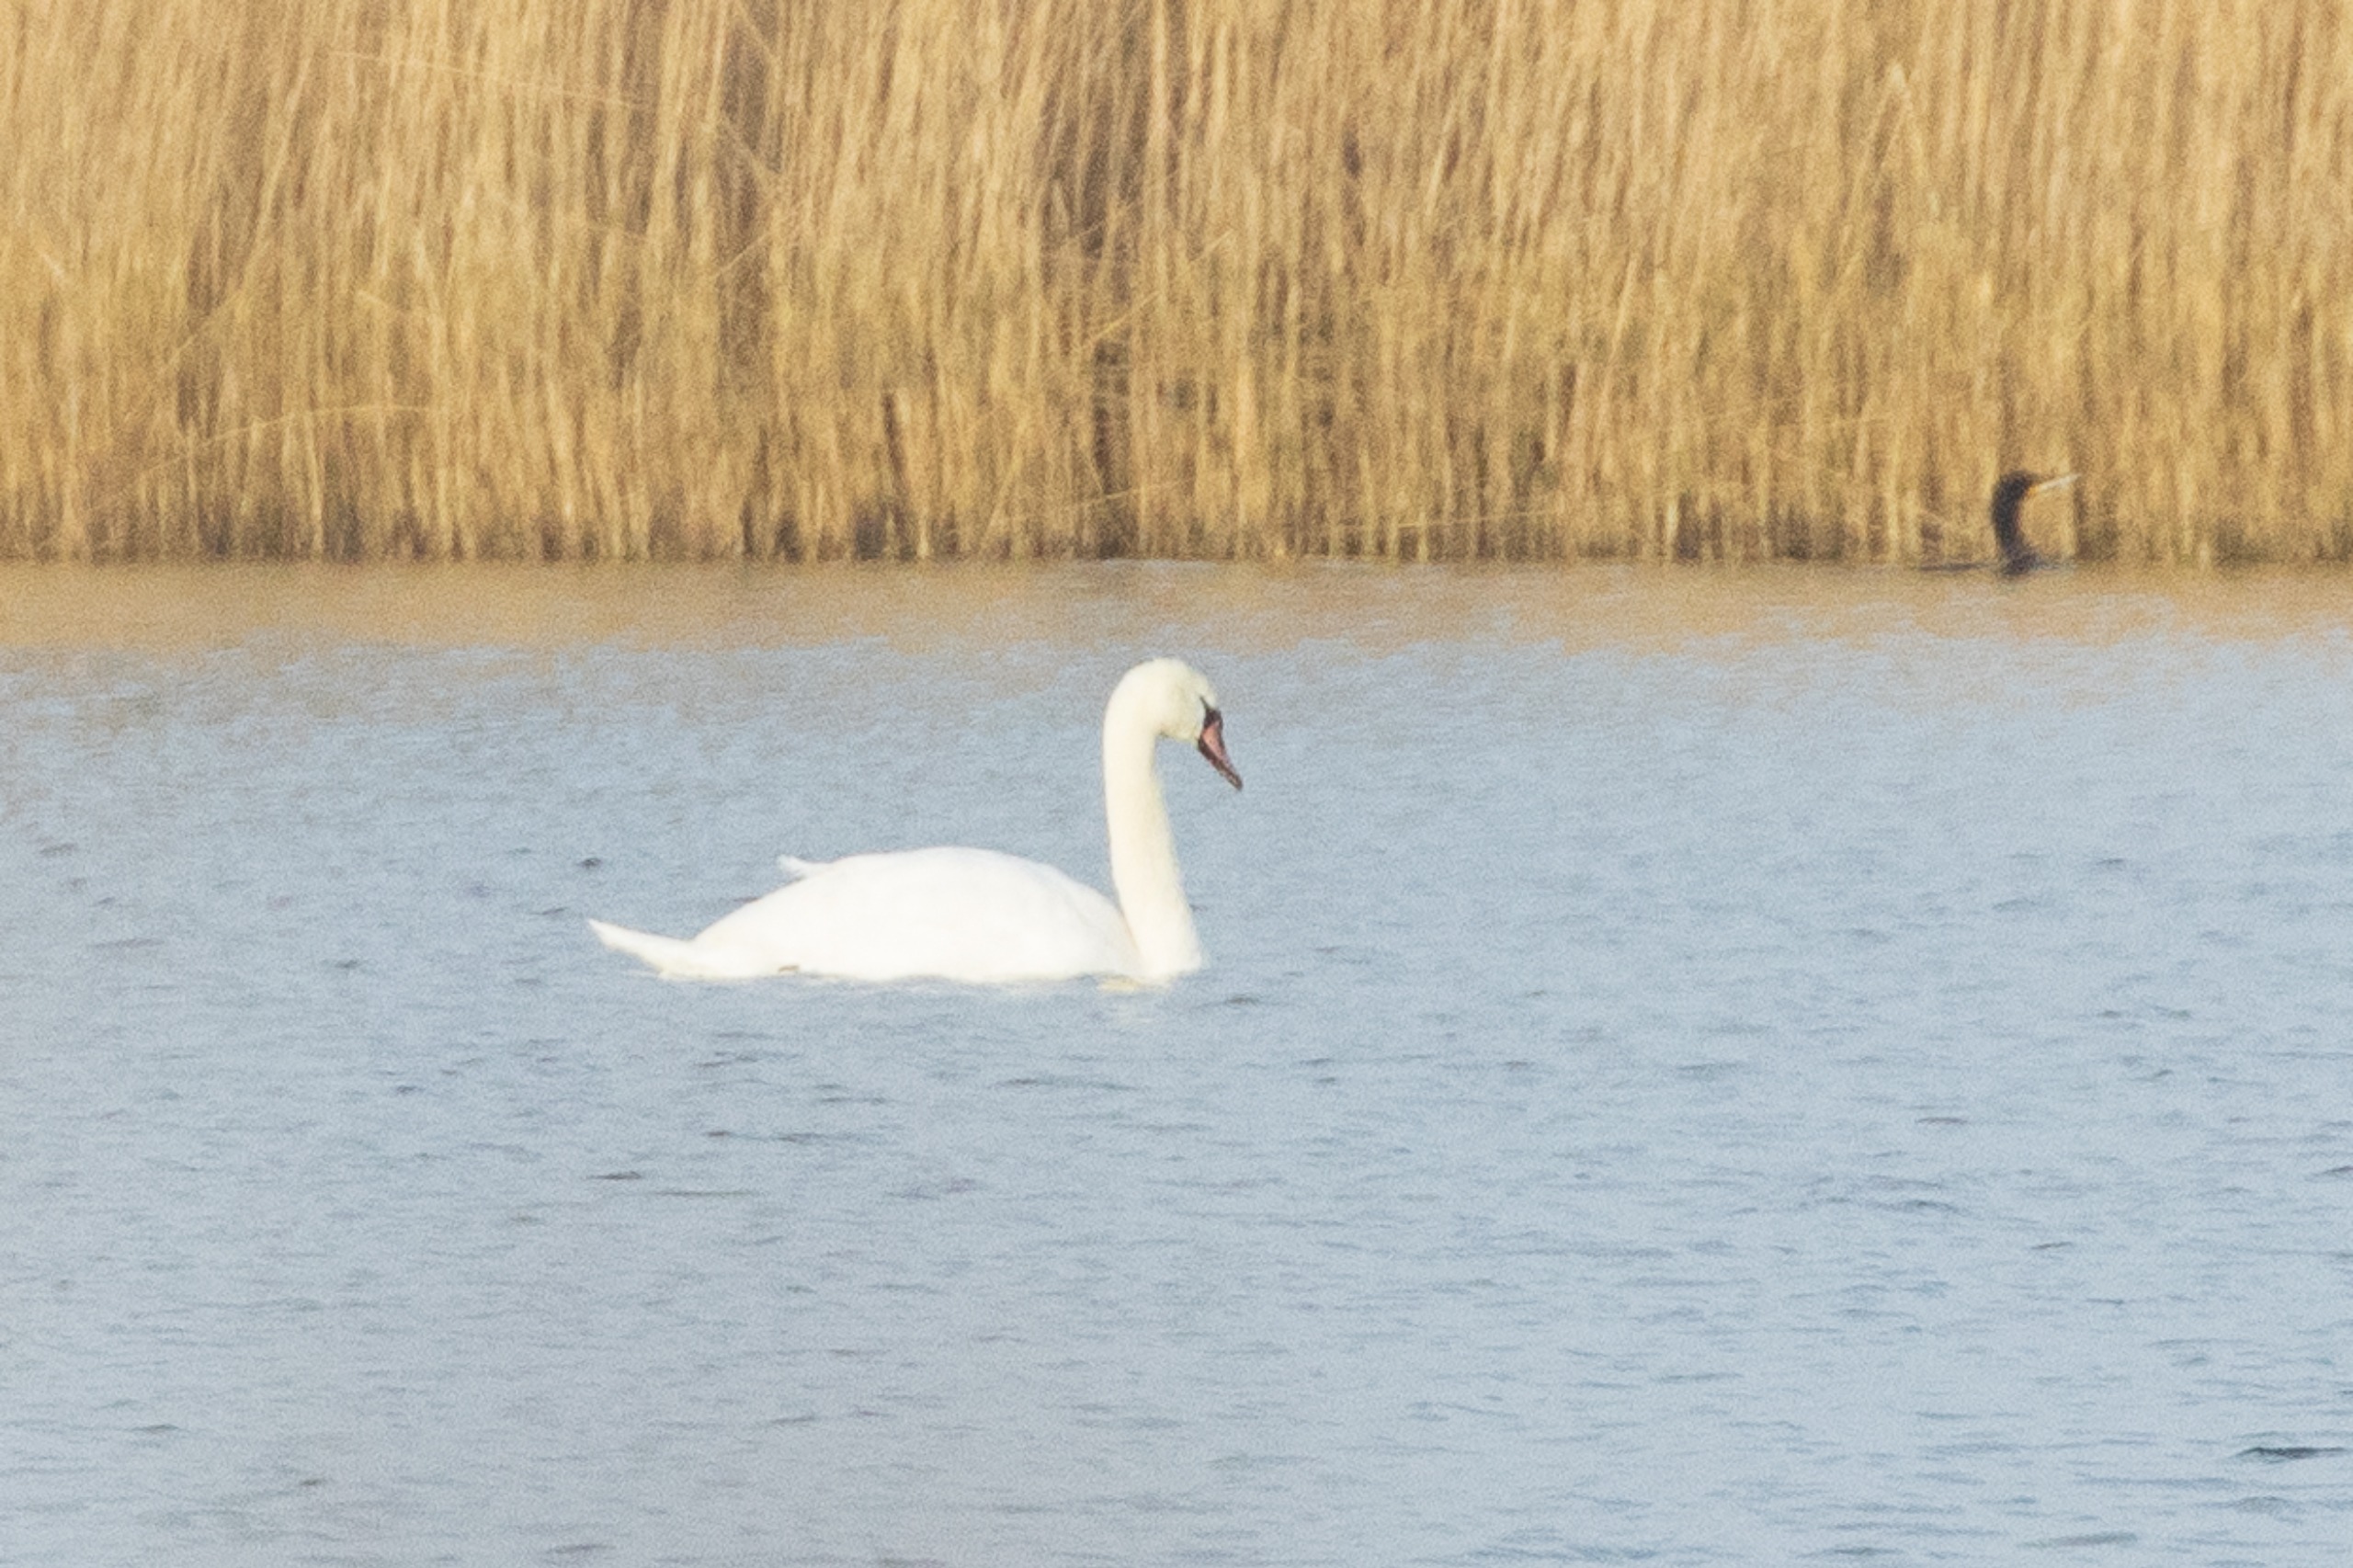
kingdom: Animalia
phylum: Chordata
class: Aves
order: Anseriformes
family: Anatidae
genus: Cygnus
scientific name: Cygnus olor
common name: Knopsvane
